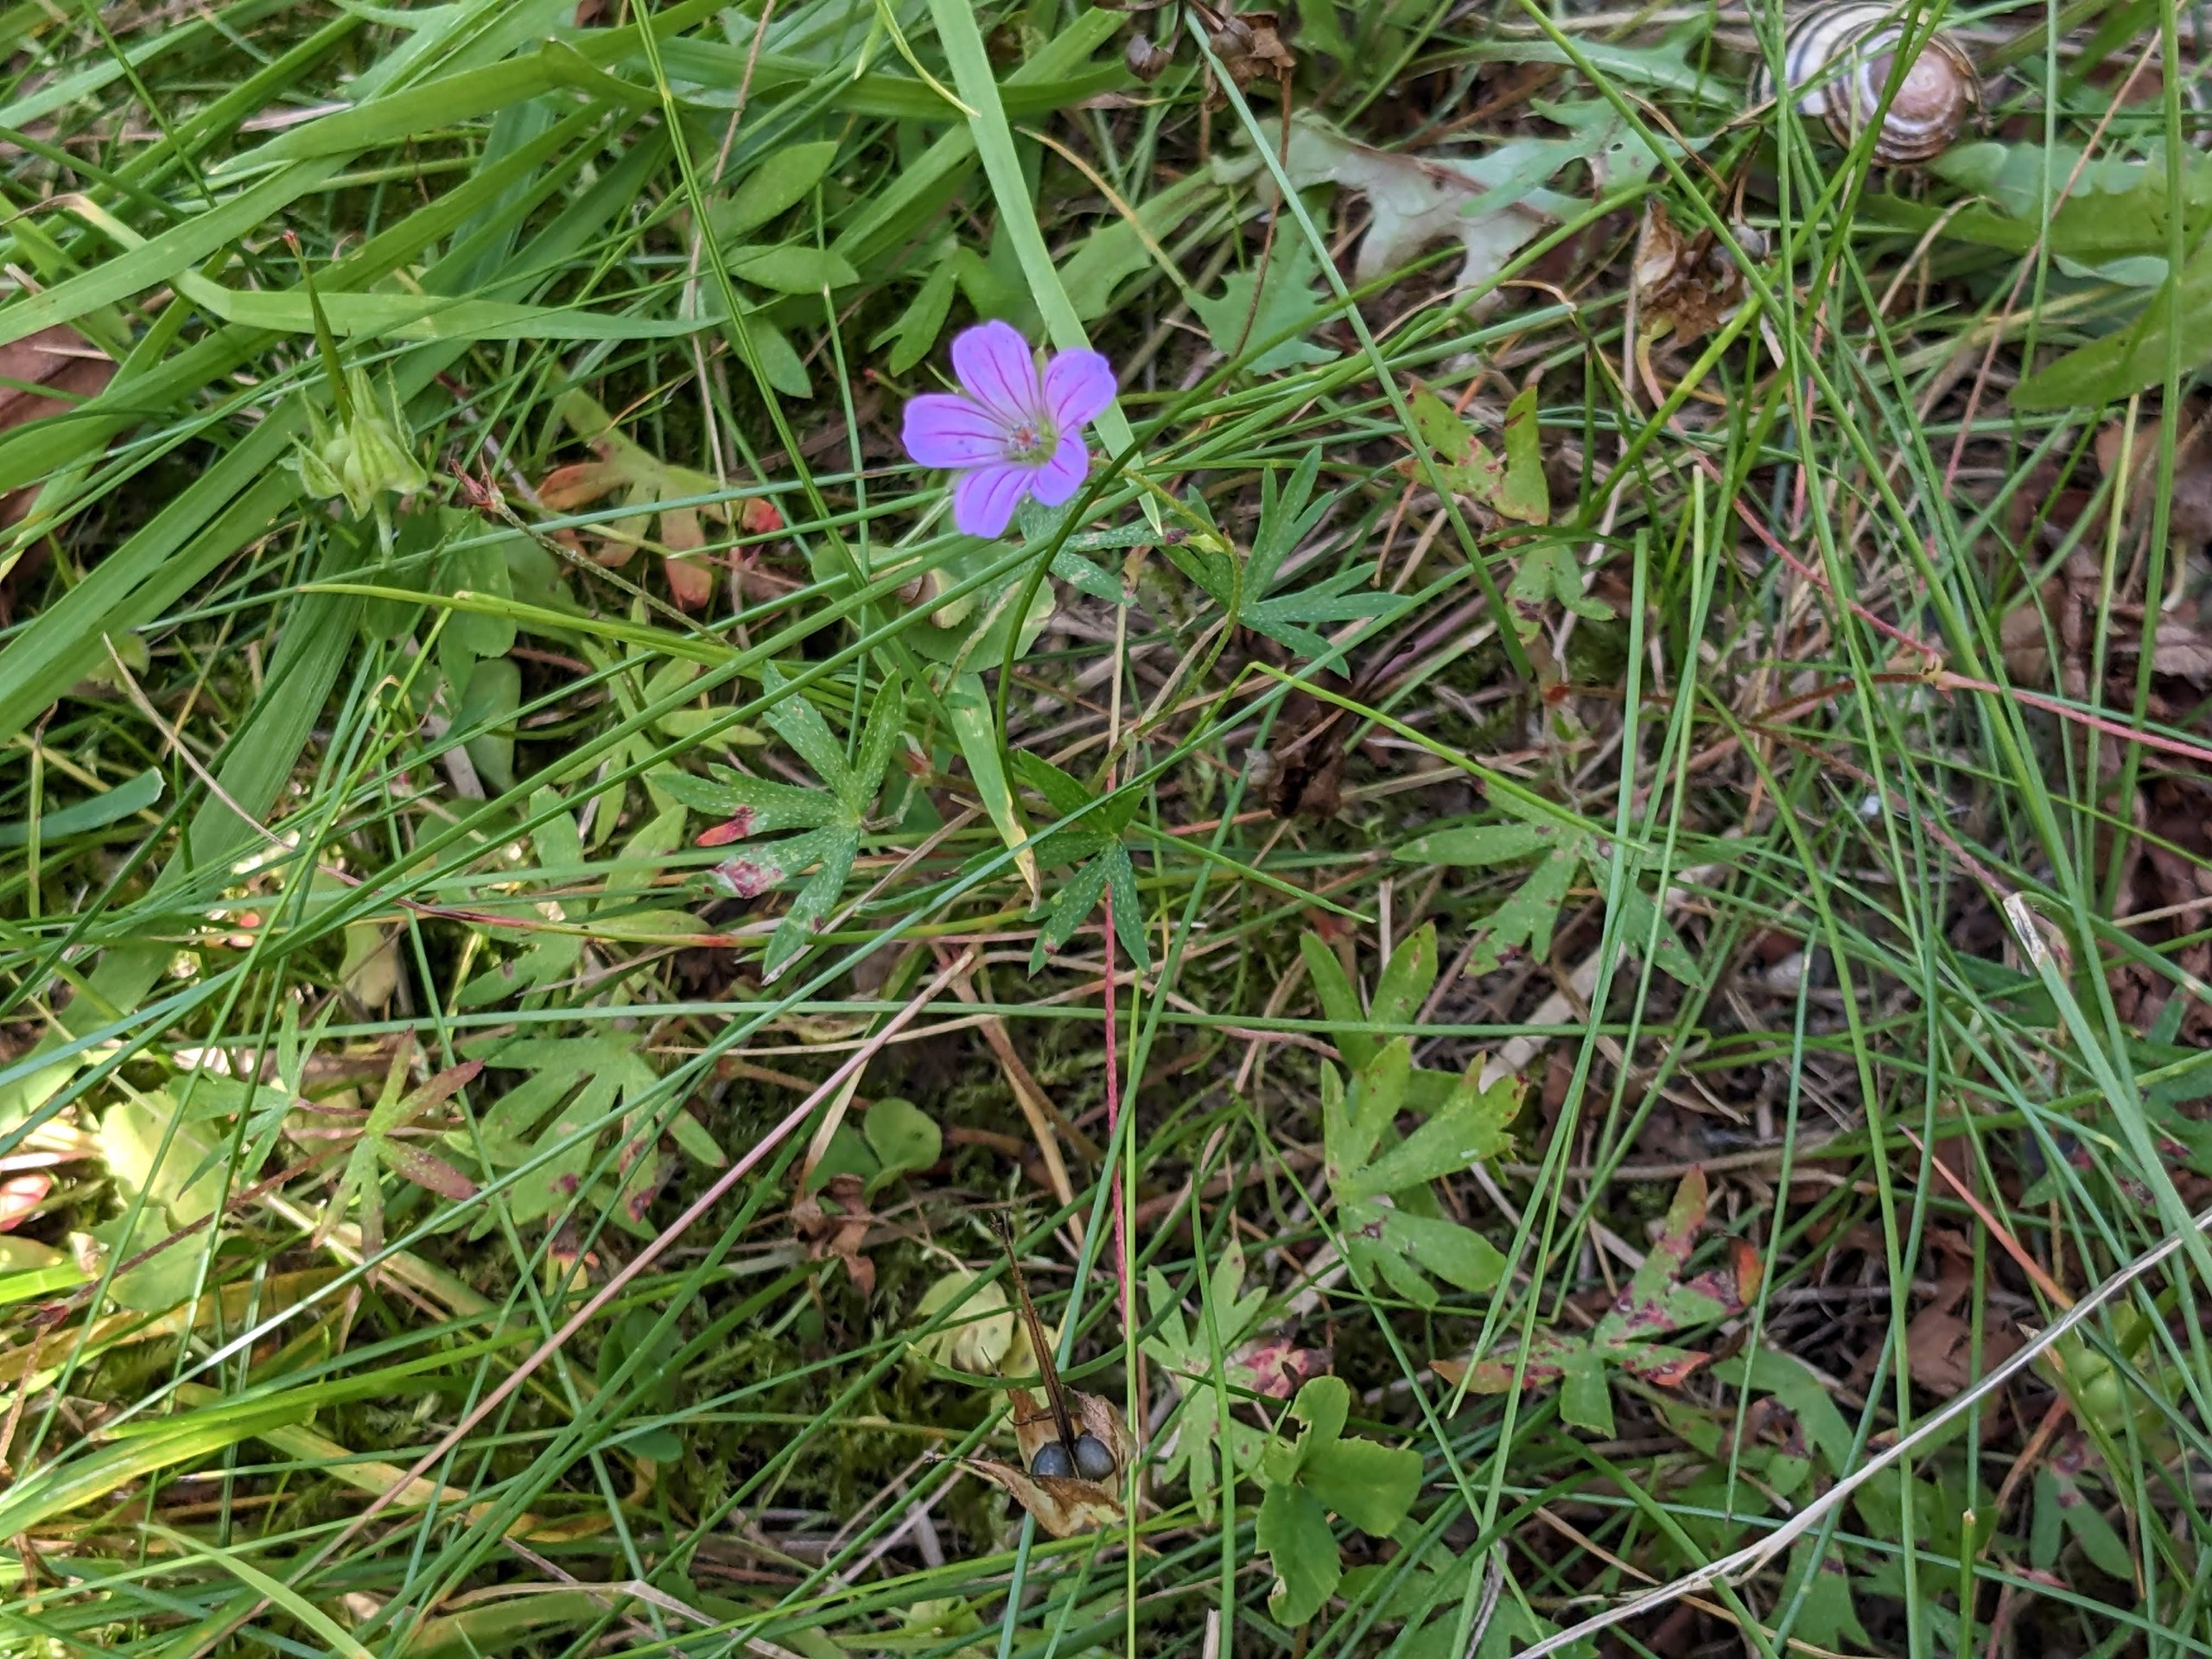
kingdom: Plantae
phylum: Tracheophyta
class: Magnoliopsida
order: Geraniales
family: Geraniaceae
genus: Geranium
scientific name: Geranium columbinum
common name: Storbægret storkenæb
